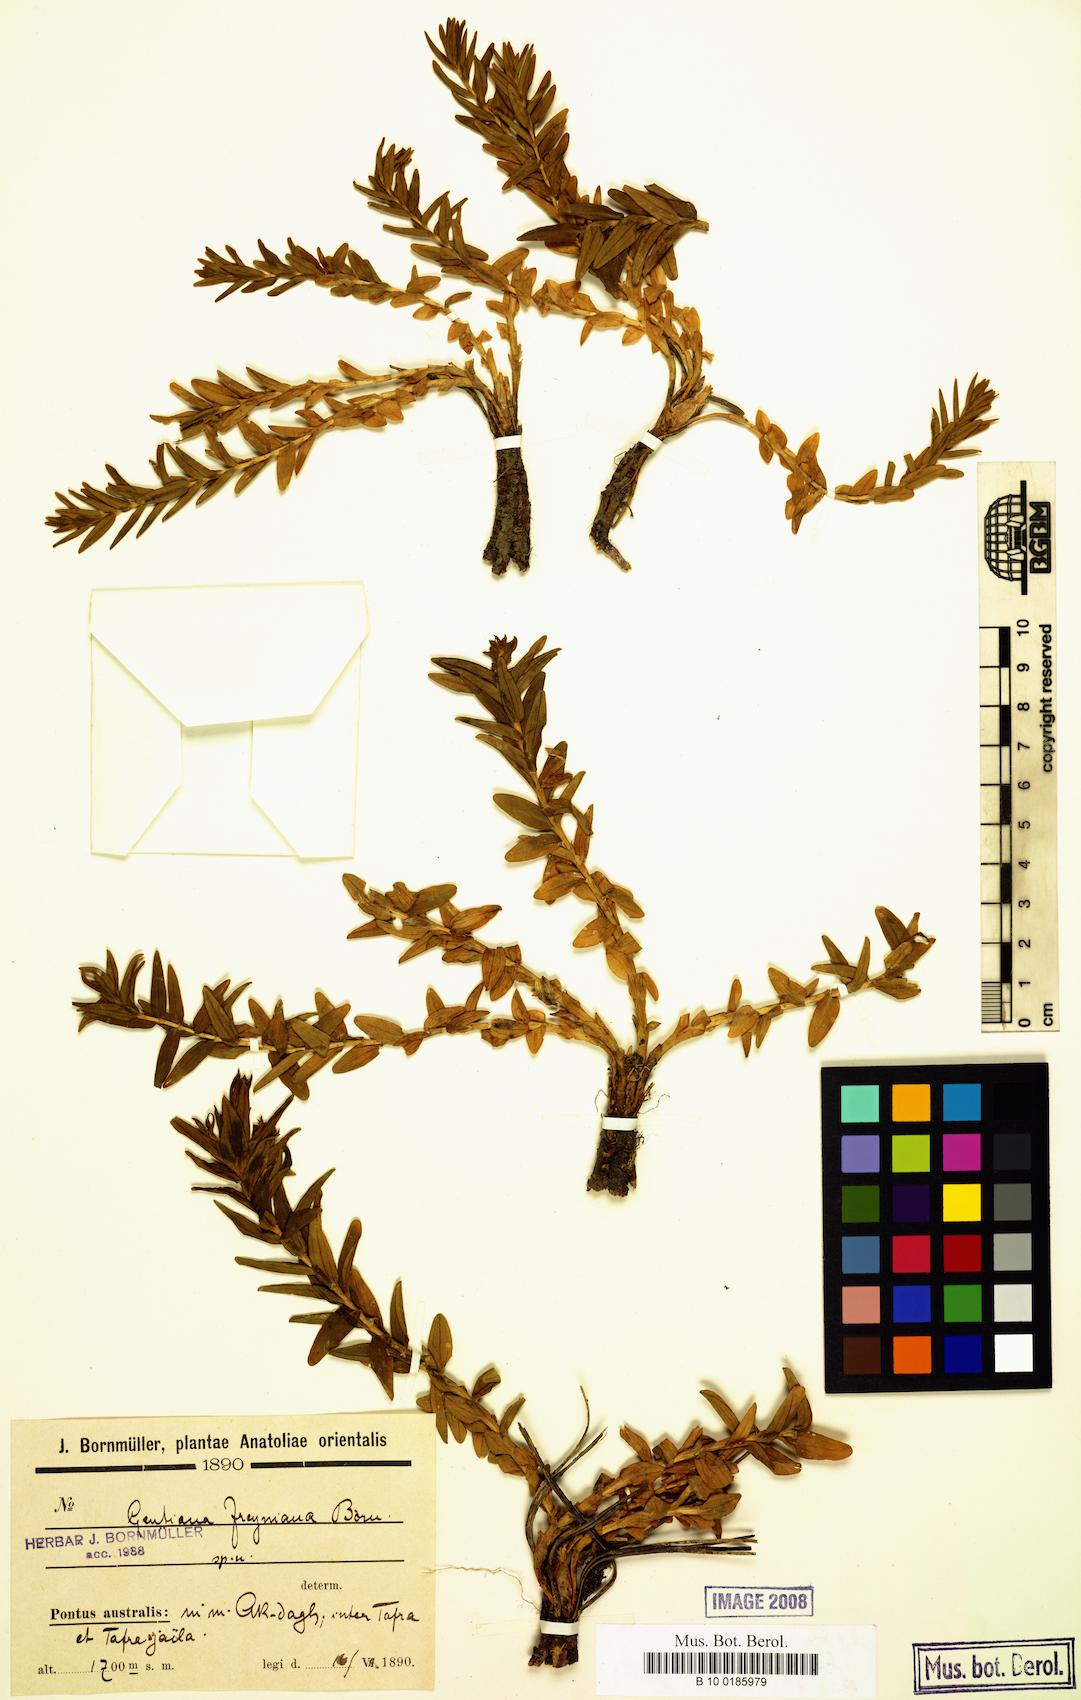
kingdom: Plantae
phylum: Tracheophyta
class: Magnoliopsida
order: Gentianales
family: Gentianaceae
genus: Gentiana
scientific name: Gentiana septemfida
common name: Crested gentian
